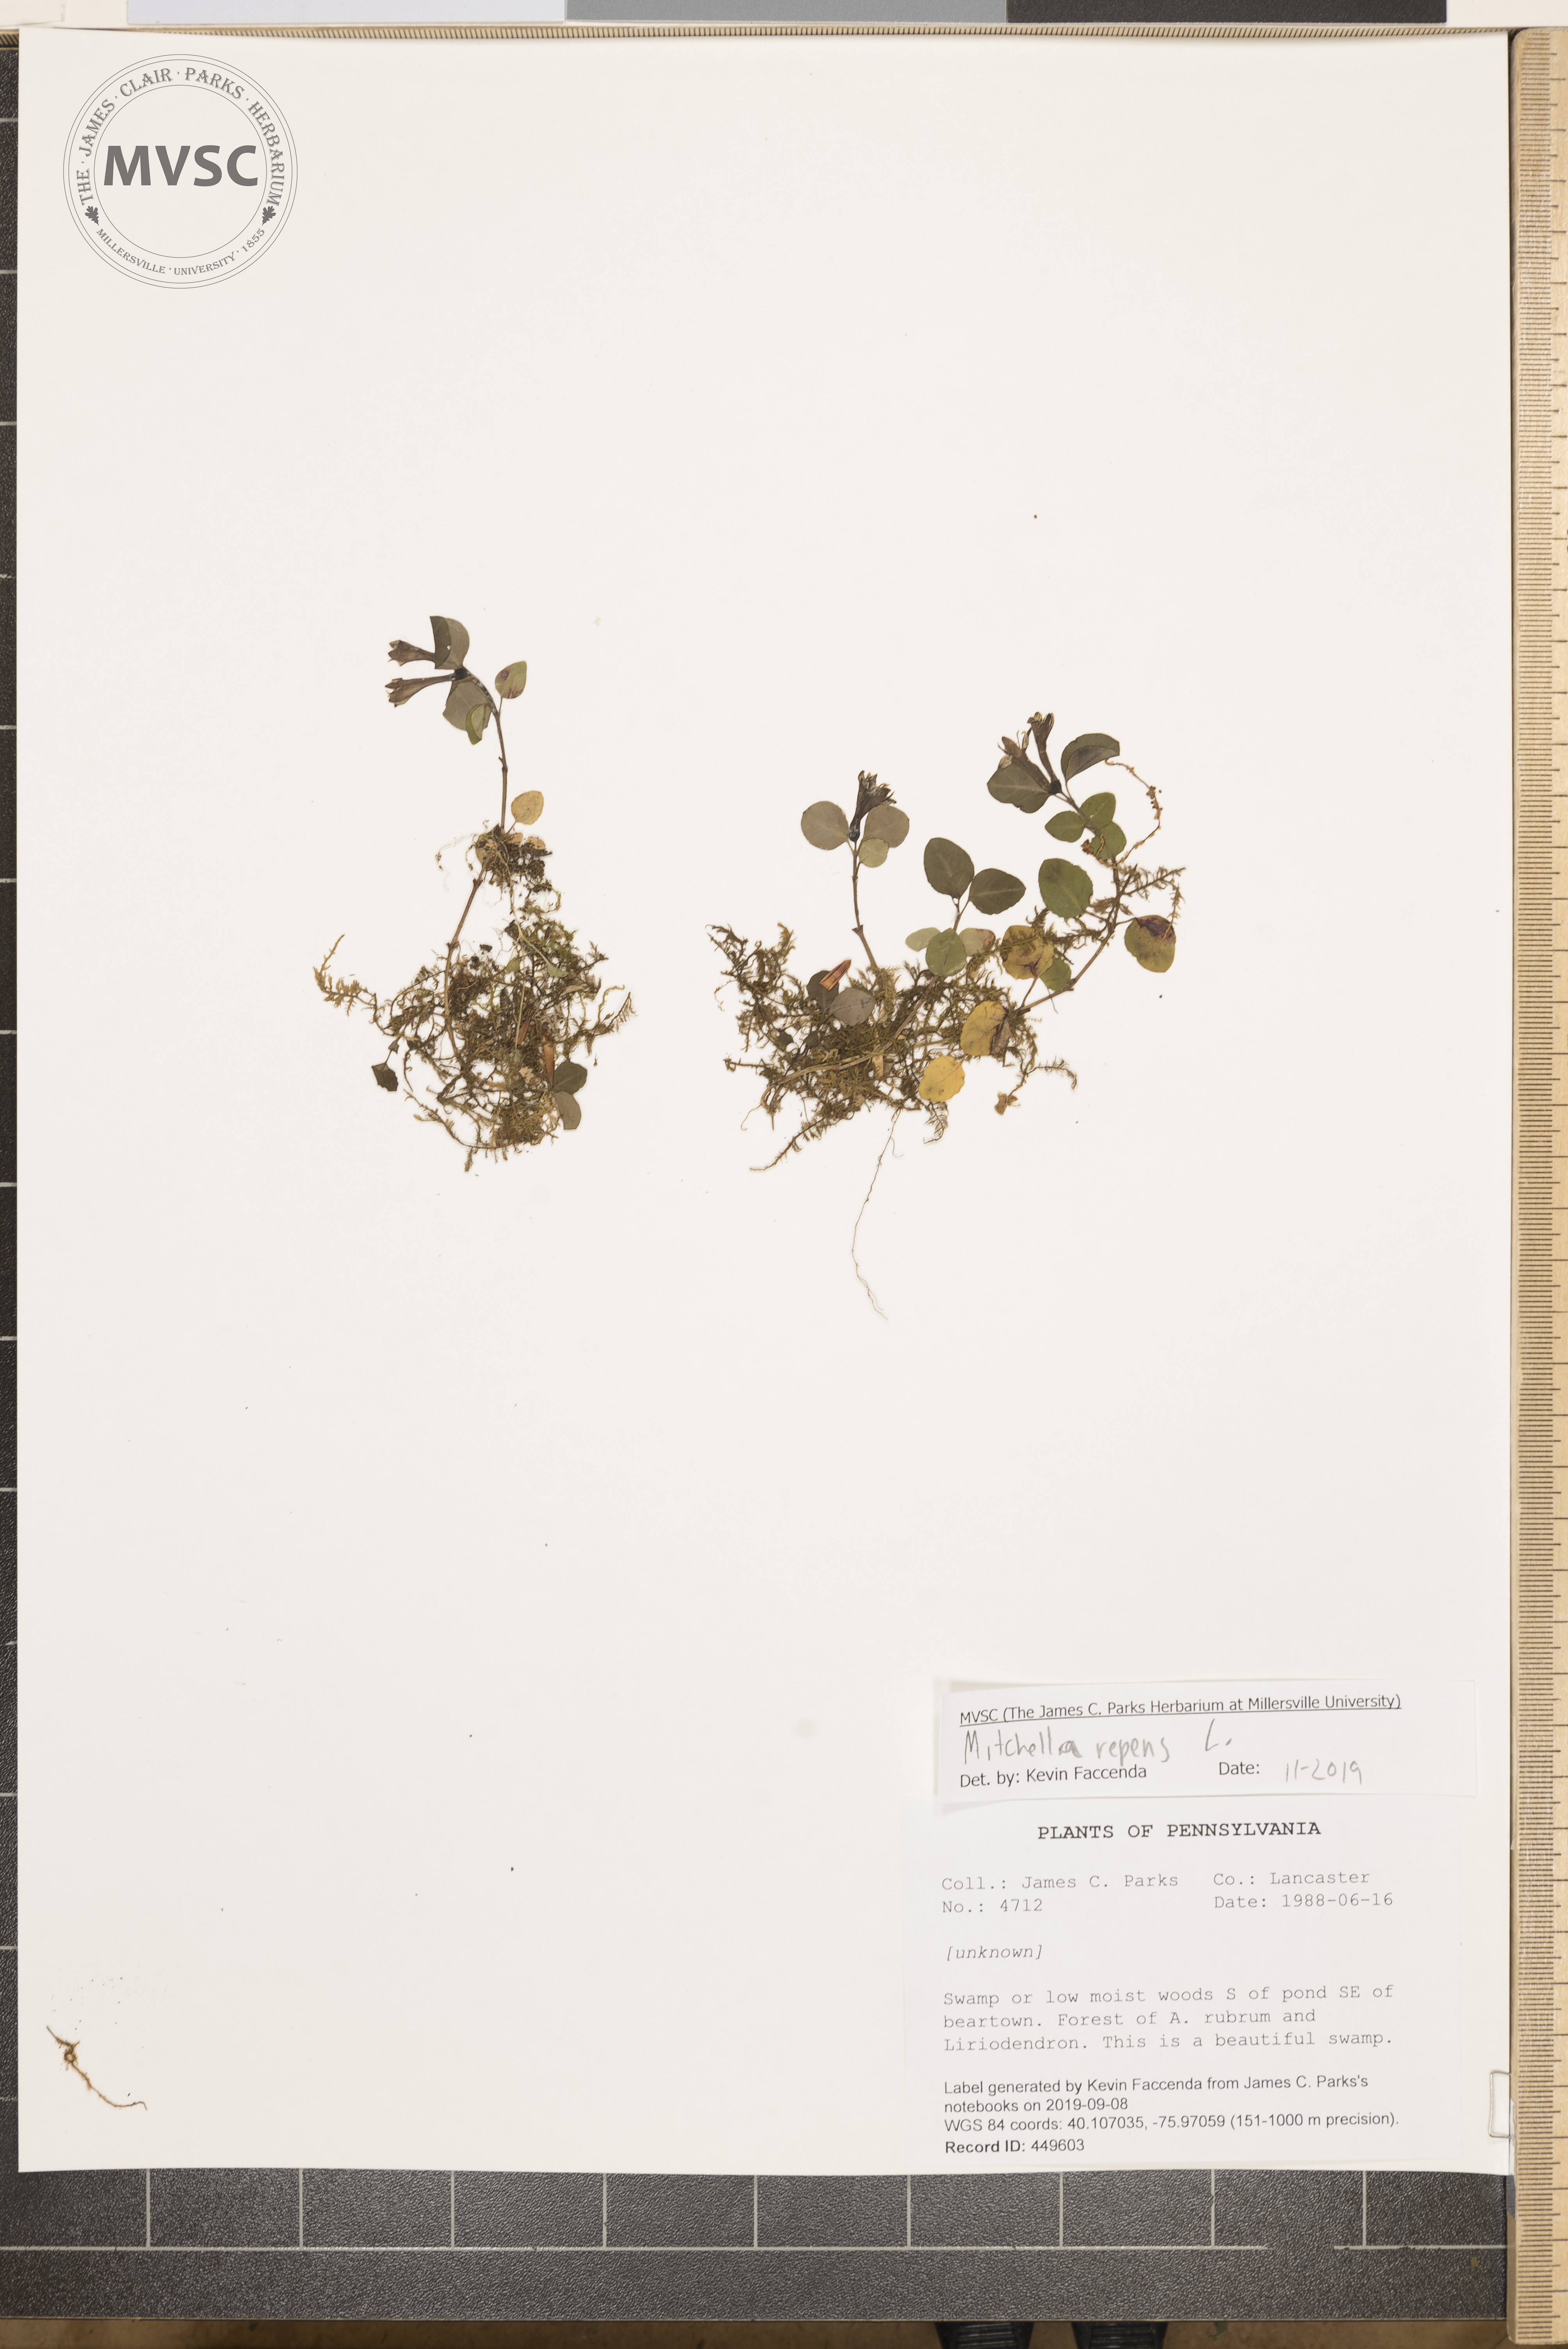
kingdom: Plantae
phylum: Tracheophyta
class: Magnoliopsida
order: Gentianales
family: Rubiaceae
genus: Mitchella
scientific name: Mitchella repens
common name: Partridge-berry
